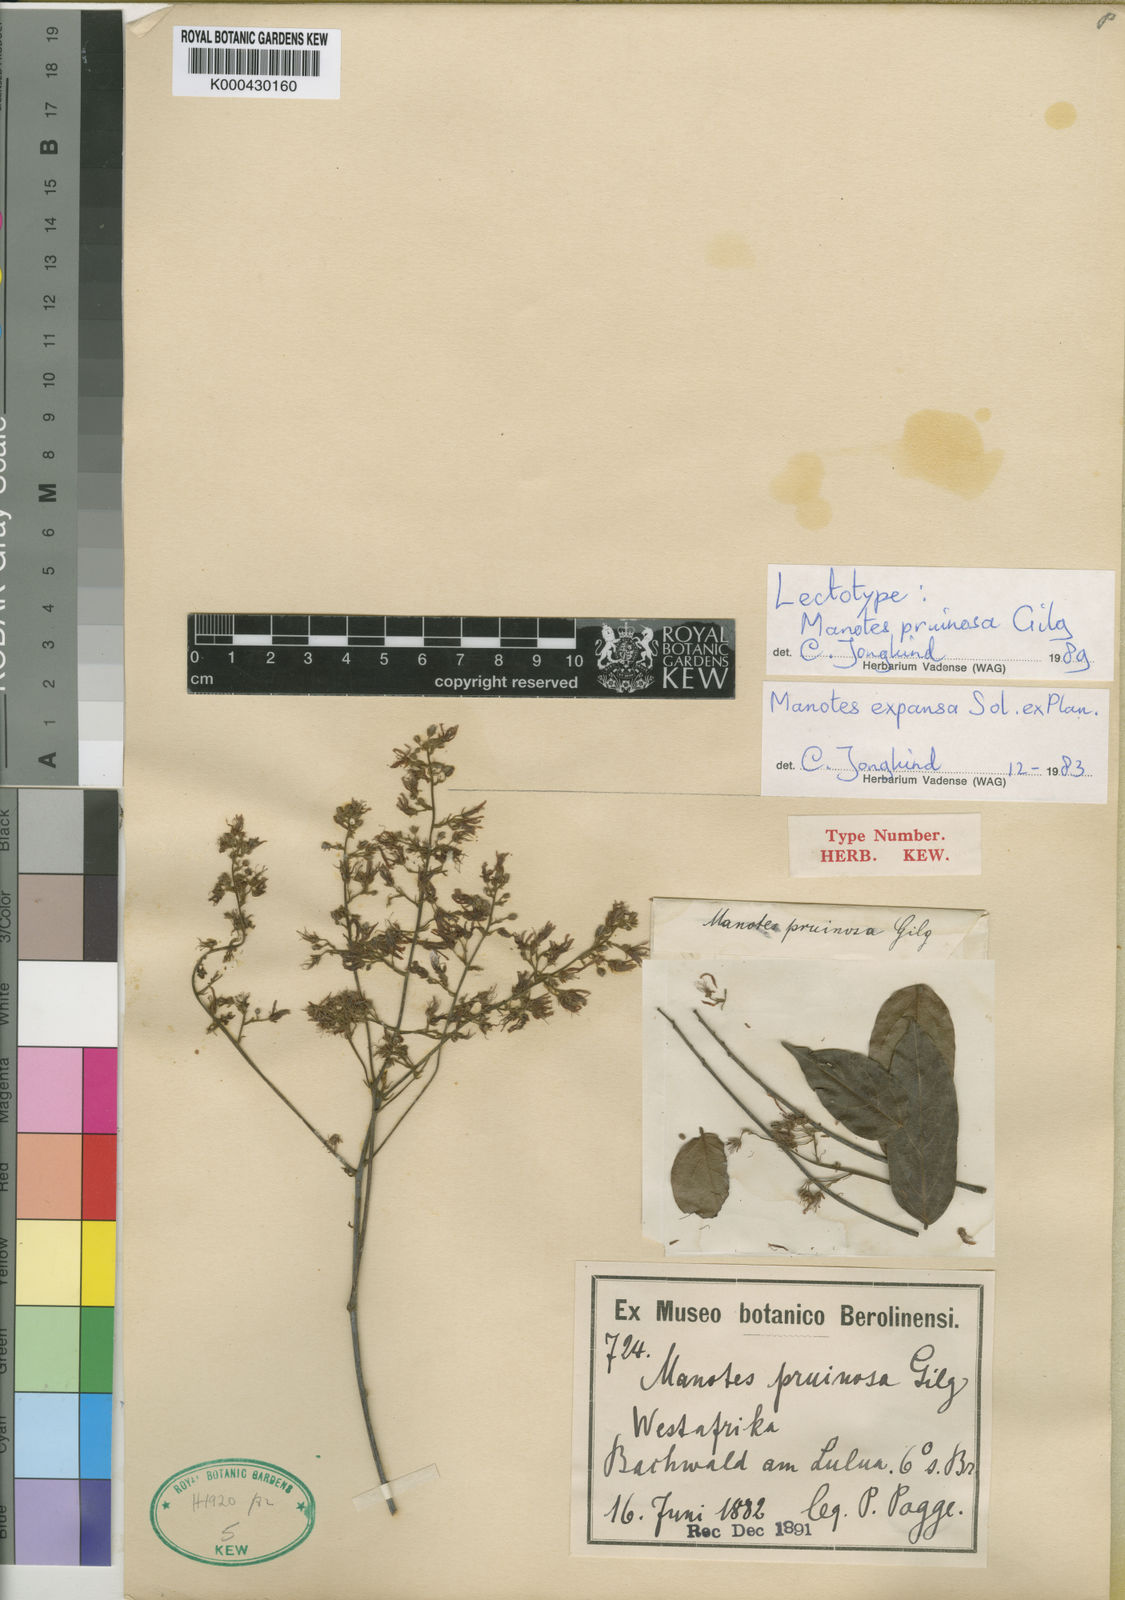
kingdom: Plantae
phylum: Tracheophyta
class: Magnoliopsida
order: Oxalidales
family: Connaraceae
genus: Manotes
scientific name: Manotes expansa
